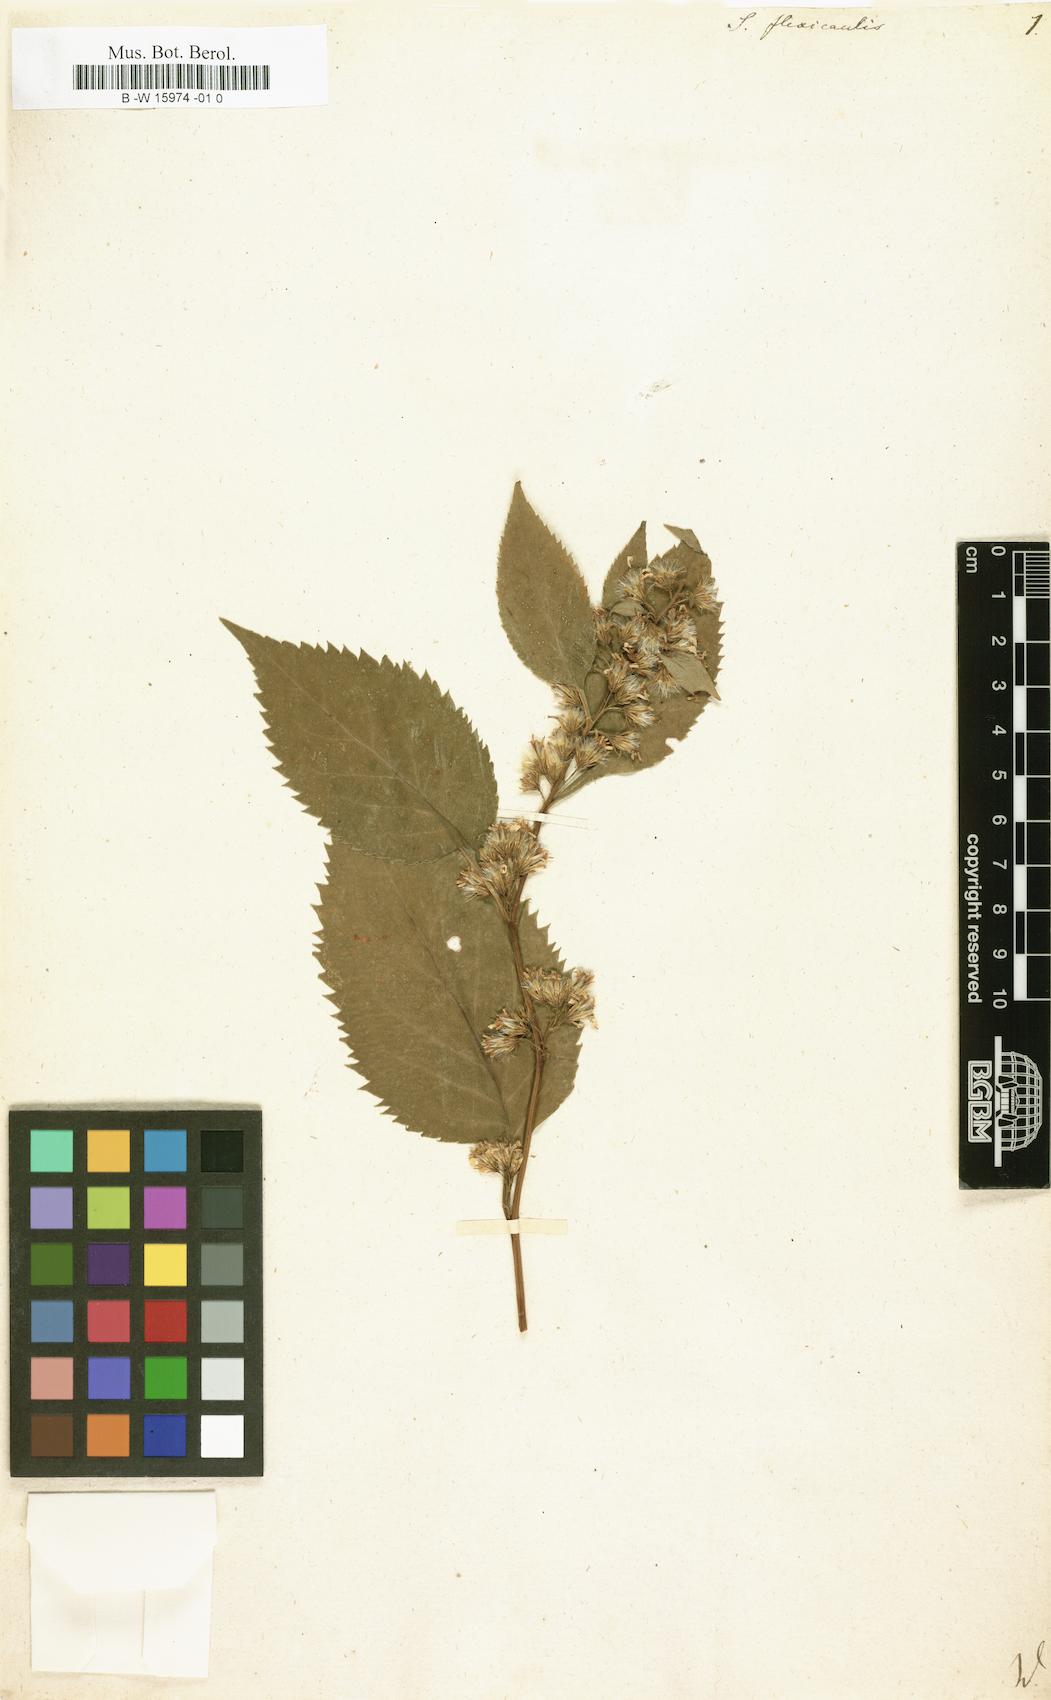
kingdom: Plantae
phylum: Tracheophyta
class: Magnoliopsida
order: Asterales
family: Asteraceae
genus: Solidago
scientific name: Solidago flexicaulis
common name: Zig-zag goldenrod
